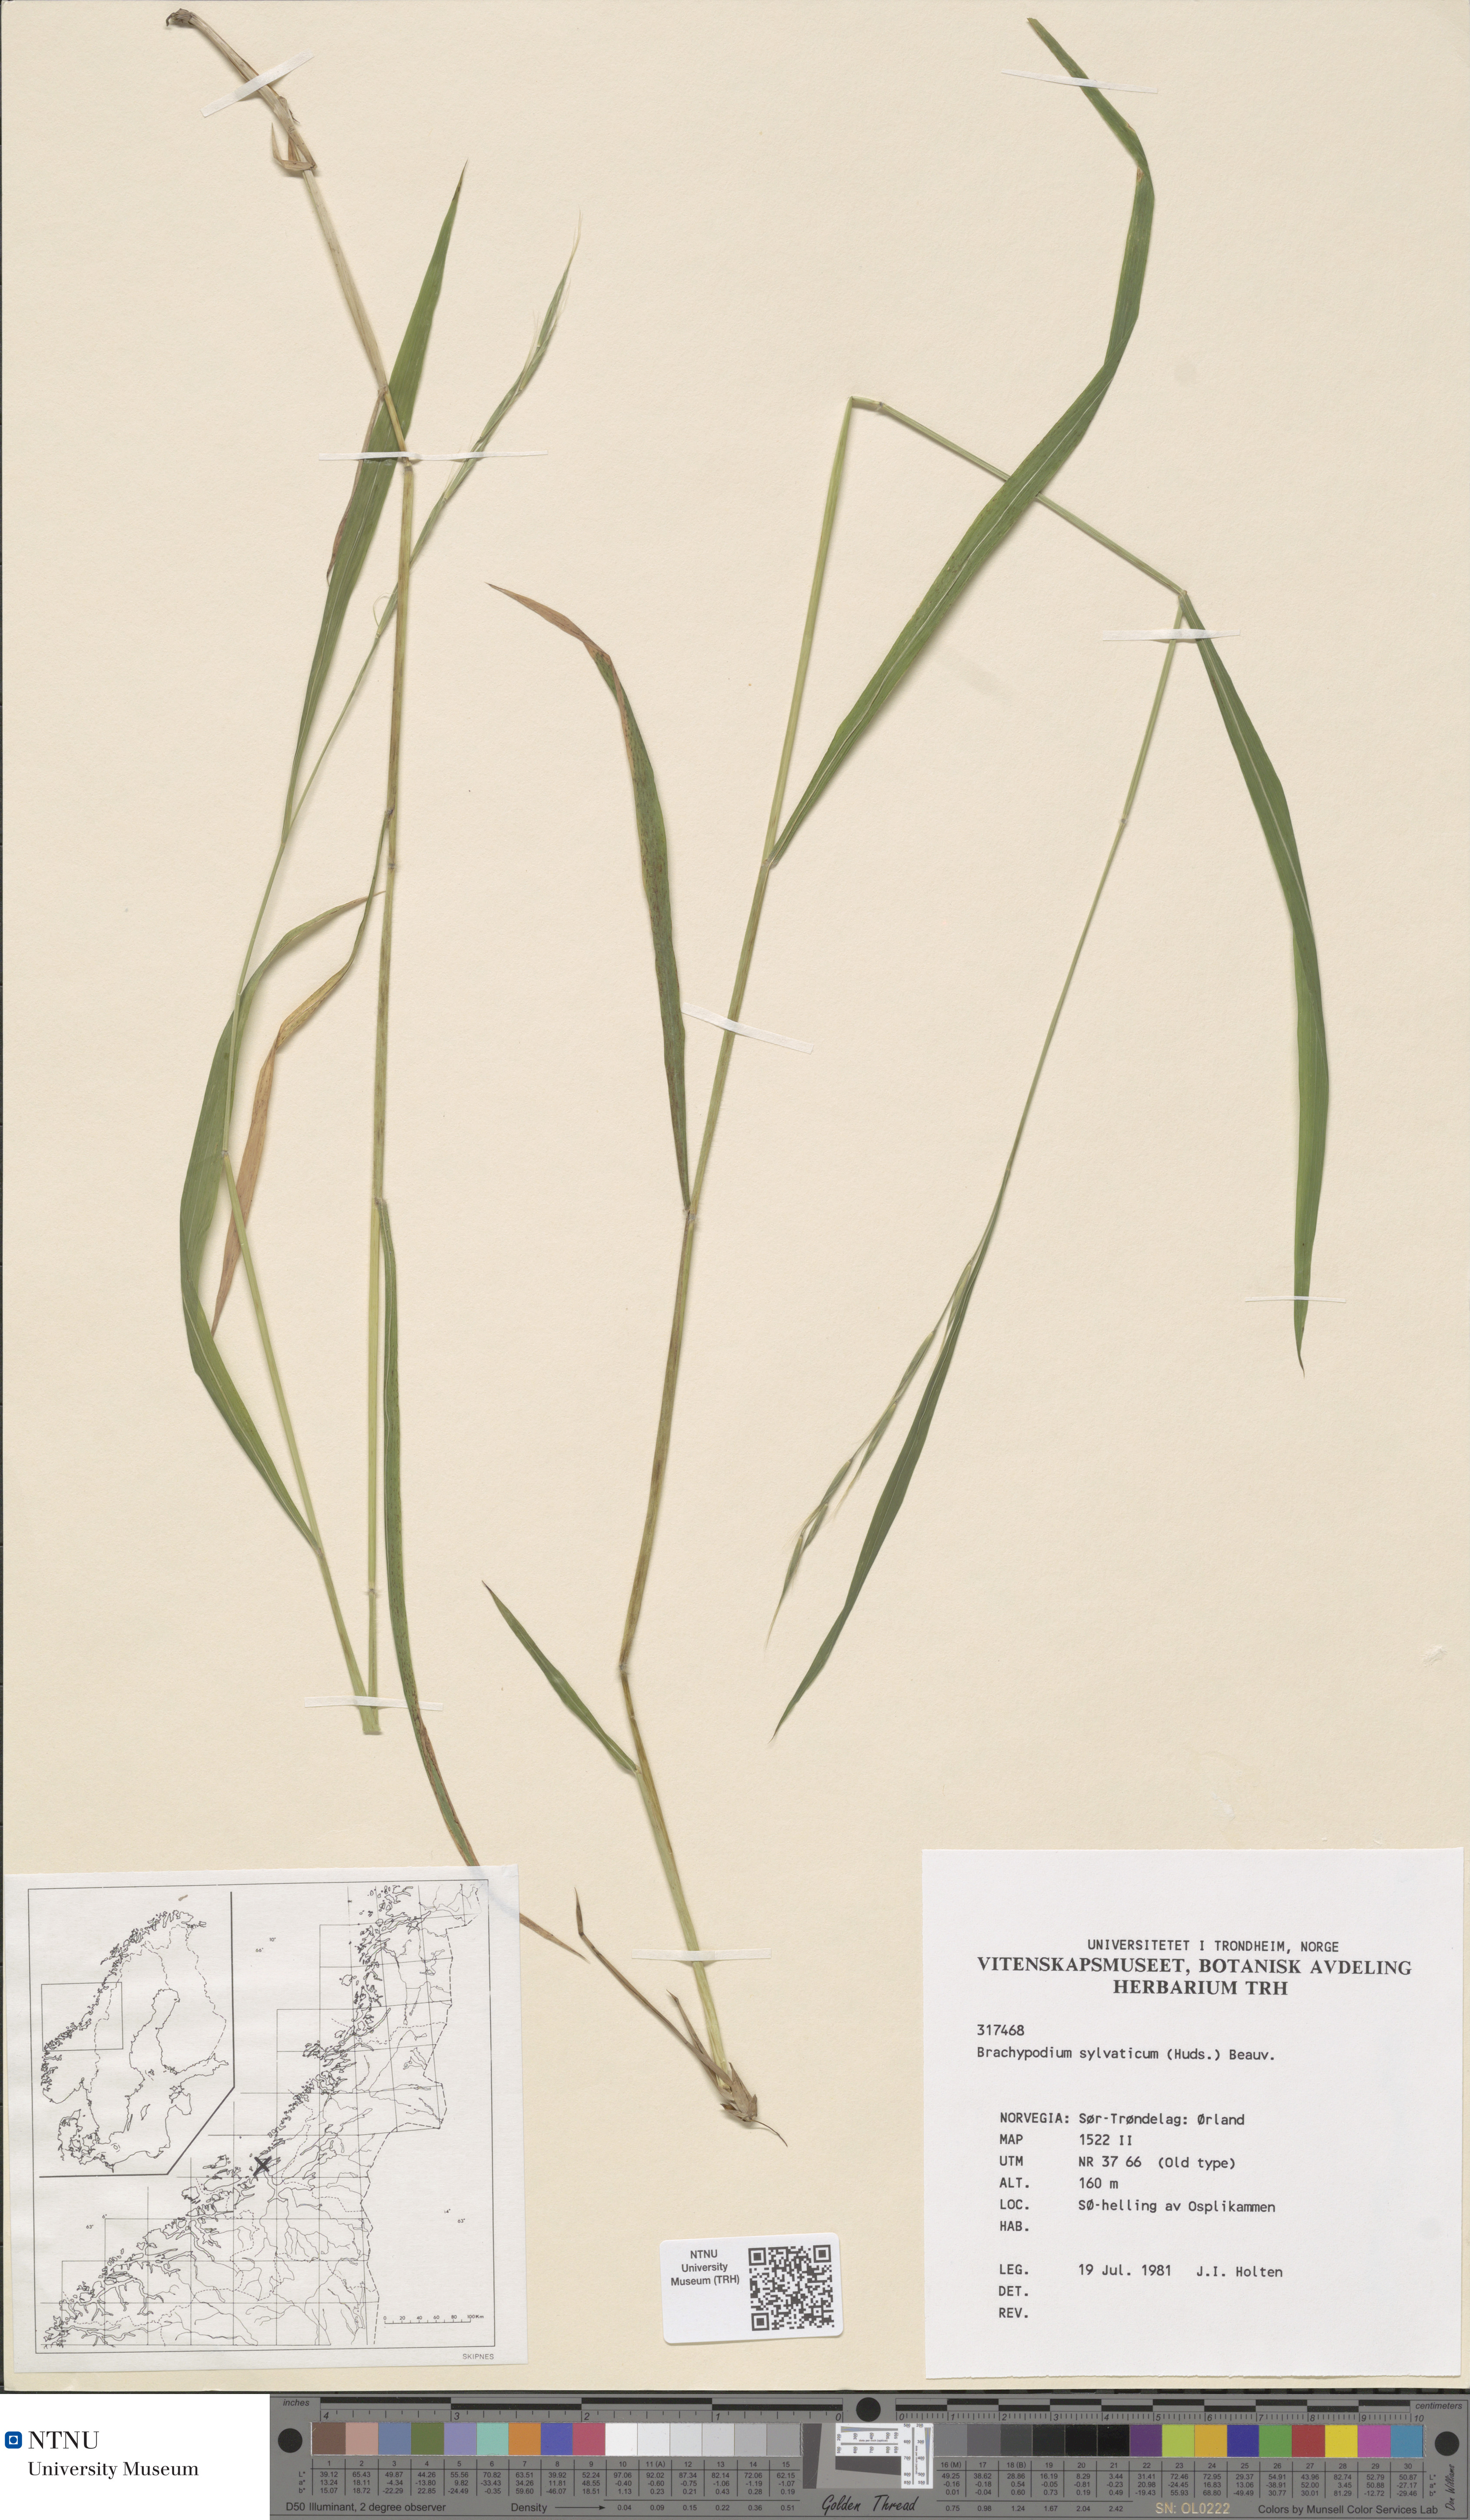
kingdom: Plantae
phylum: Tracheophyta
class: Liliopsida
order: Poales
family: Poaceae
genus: Brachypodium
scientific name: Brachypodium sylvaticum
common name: False-brome
